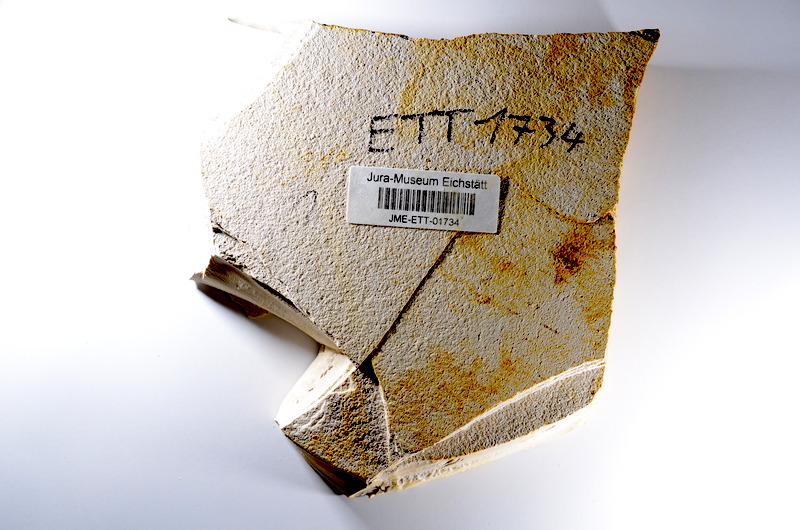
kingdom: Animalia
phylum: Chordata
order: Salmoniformes
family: Orthogonikleithridae
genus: Orthogonikleithrus
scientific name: Orthogonikleithrus hoelli
